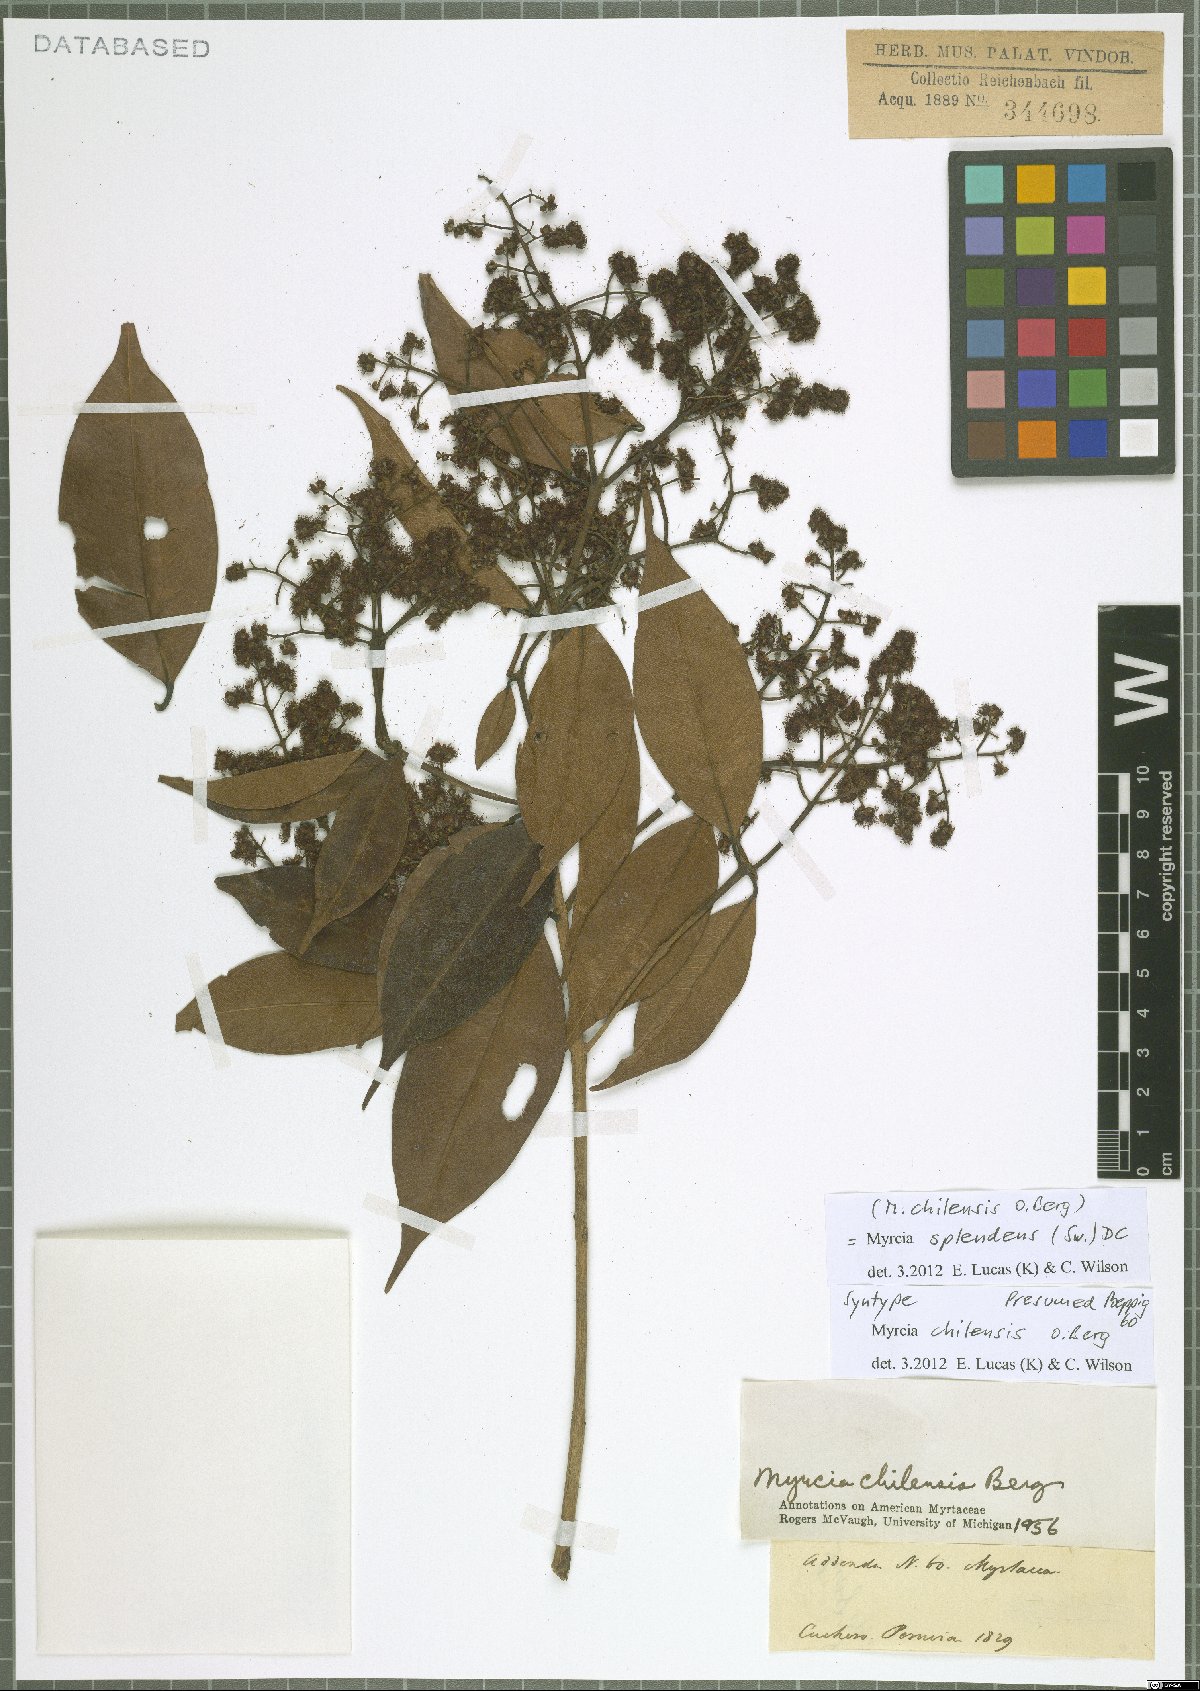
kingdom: Plantae
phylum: Tracheophyta
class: Magnoliopsida
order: Myrtales
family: Myrtaceae
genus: Myrcia
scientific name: Myrcia splendens
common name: Surinam cherry
